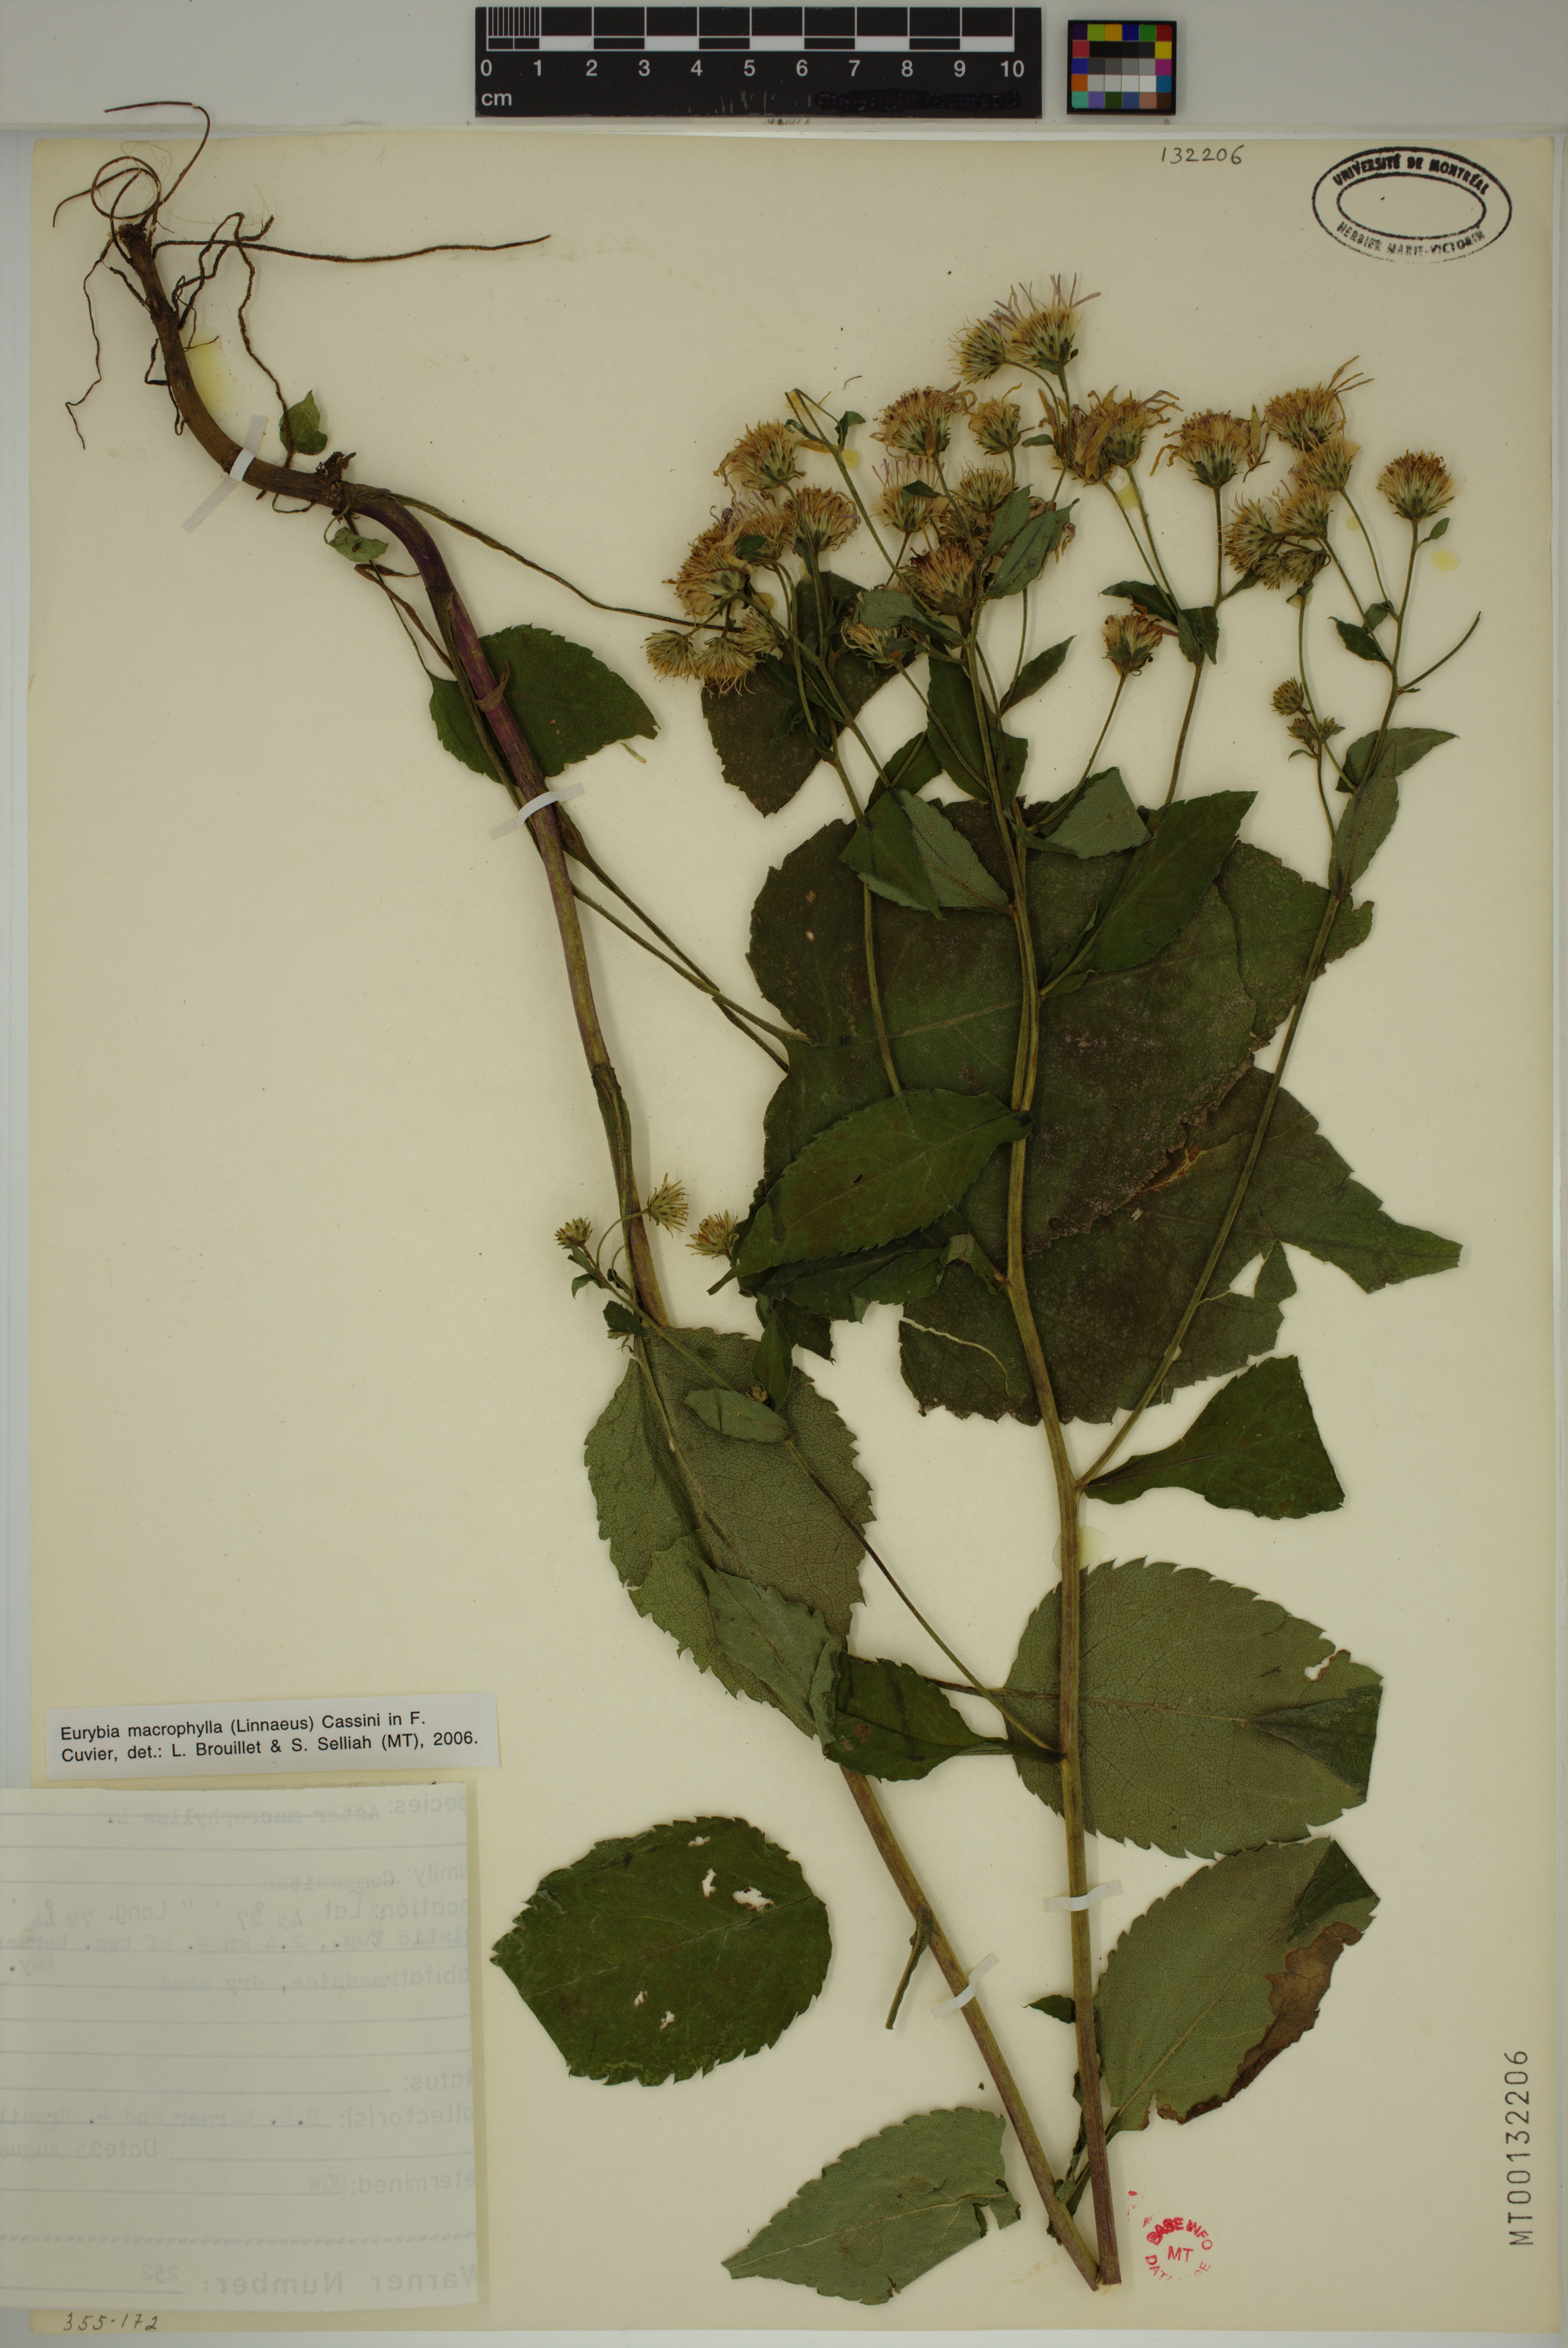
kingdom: Plantae
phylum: Tracheophyta
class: Magnoliopsida
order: Asterales
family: Asteraceae
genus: Eurybia
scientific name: Eurybia macrophylla
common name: Big-leaved aster
